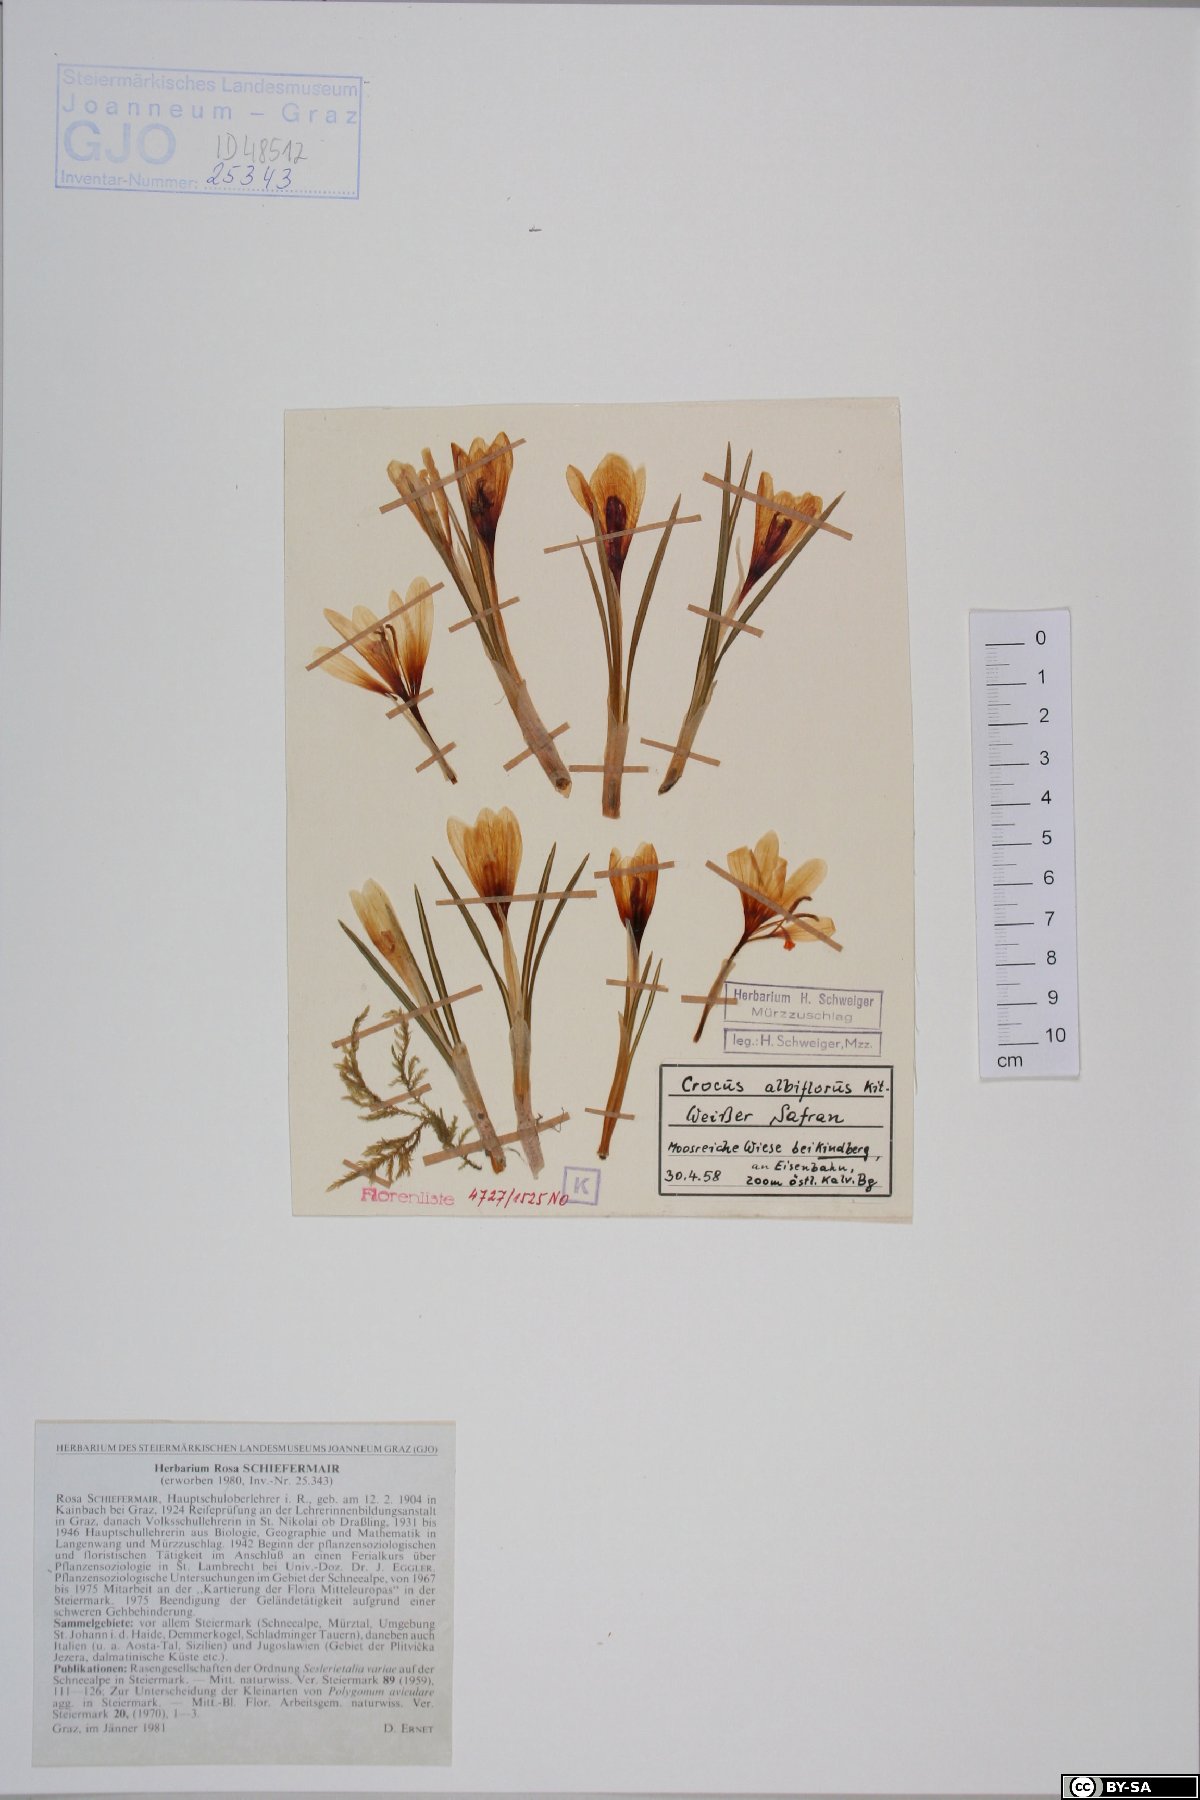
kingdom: Plantae
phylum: Tracheophyta
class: Liliopsida
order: Asparagales
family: Iridaceae
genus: Crocus
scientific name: Crocus vernus
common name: Spring crocus
